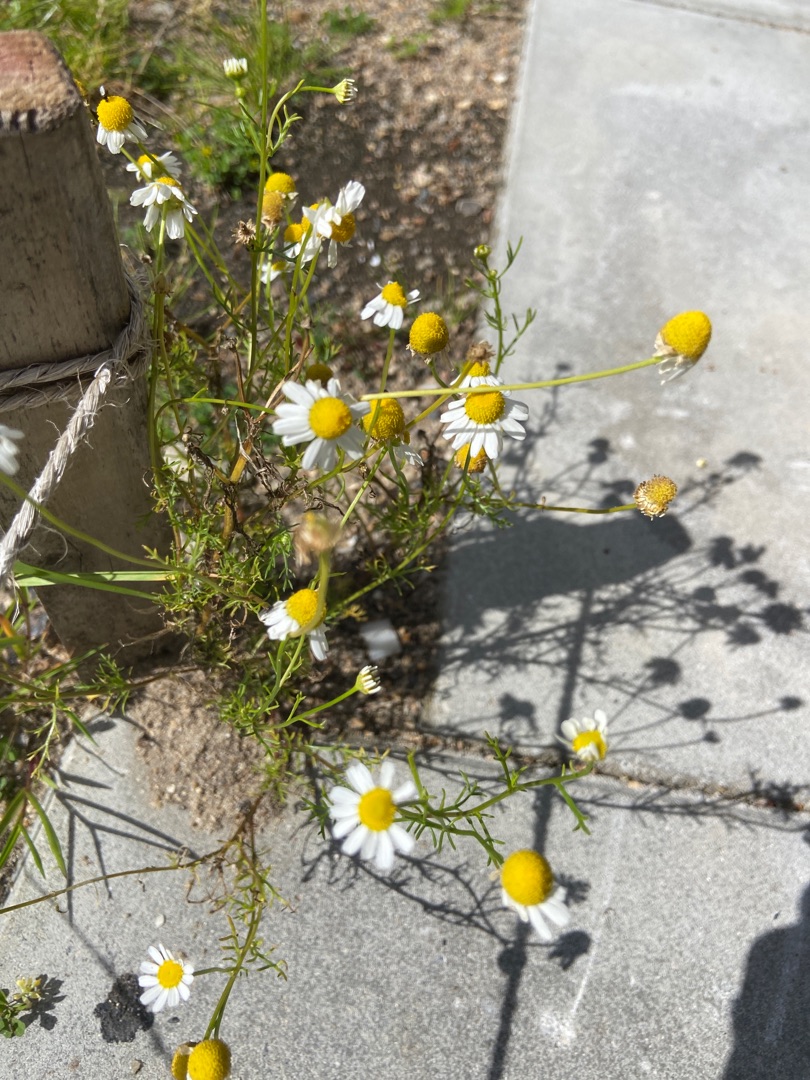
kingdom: Plantae
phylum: Tracheophyta
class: Magnoliopsida
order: Asterales
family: Asteraceae
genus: Matricaria
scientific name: Matricaria chamomilla
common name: Vellugtende kamille
